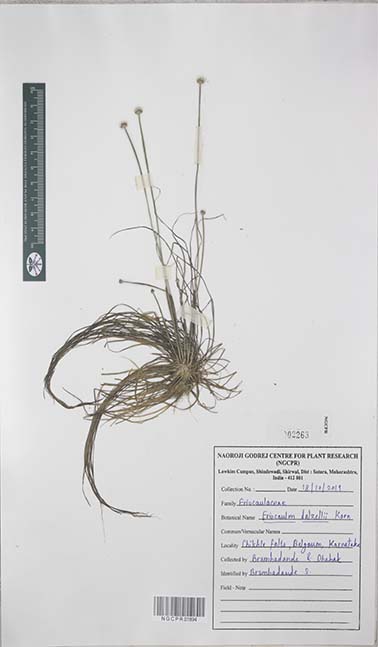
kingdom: Plantae
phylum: Tracheophyta
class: Liliopsida
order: Poales
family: Eriocaulaceae
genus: Eriocaulon
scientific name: Eriocaulon dalzellii
